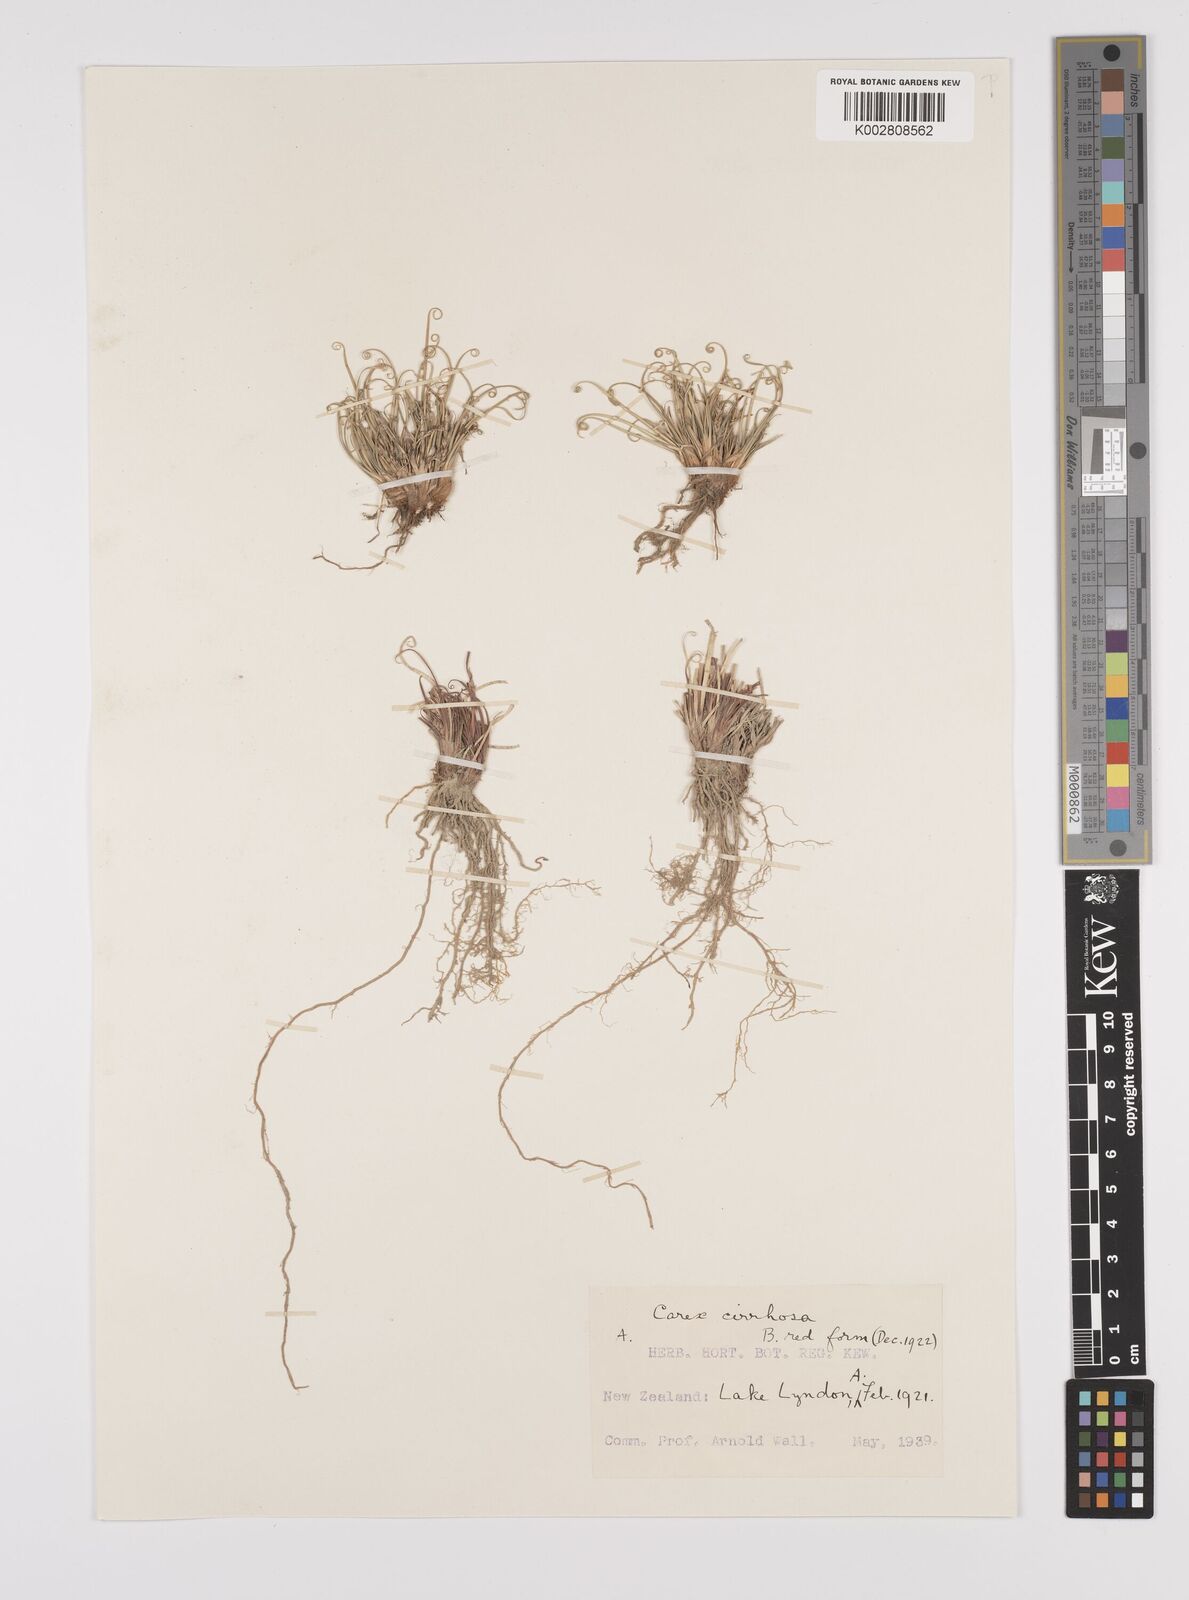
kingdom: Plantae
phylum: Tracheophyta
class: Liliopsida
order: Poales
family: Cyperaceae
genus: Carex
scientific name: Carex cirrhosa
